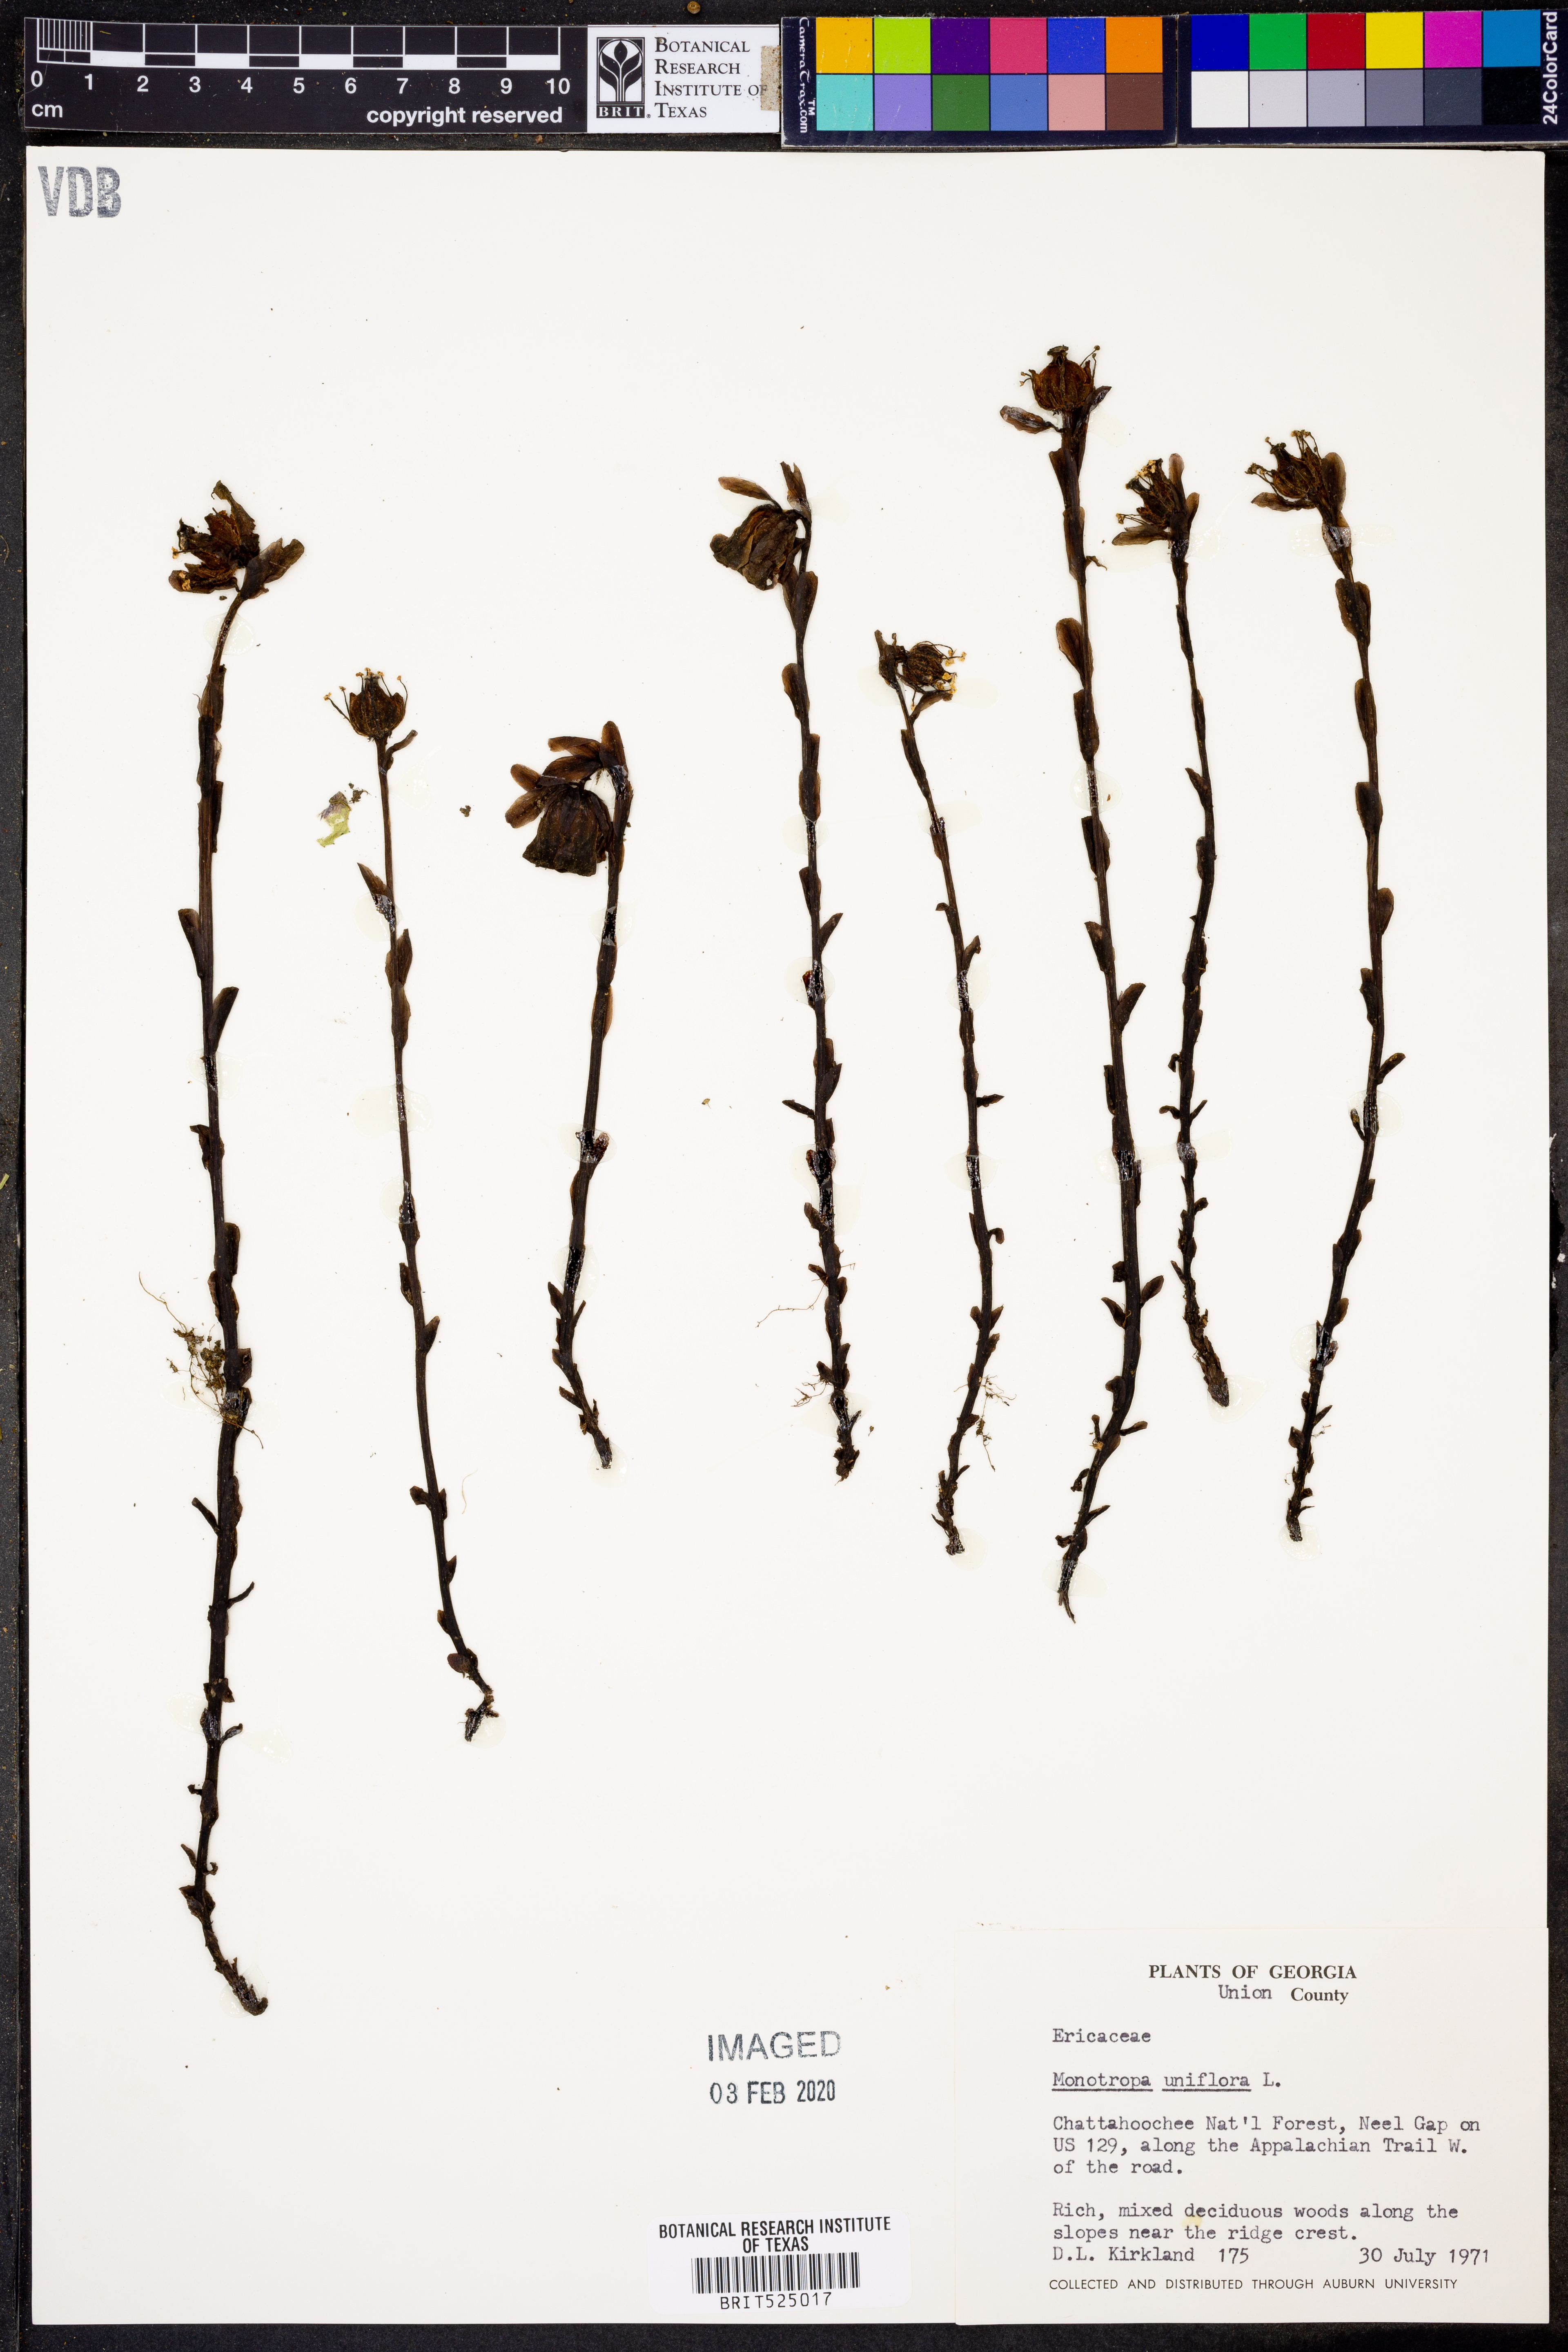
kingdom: Plantae
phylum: Tracheophyta
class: Magnoliopsida
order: Ericales
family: Ericaceae
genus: Monotropa
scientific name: Monotropa uniflora
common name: Convulsion root
